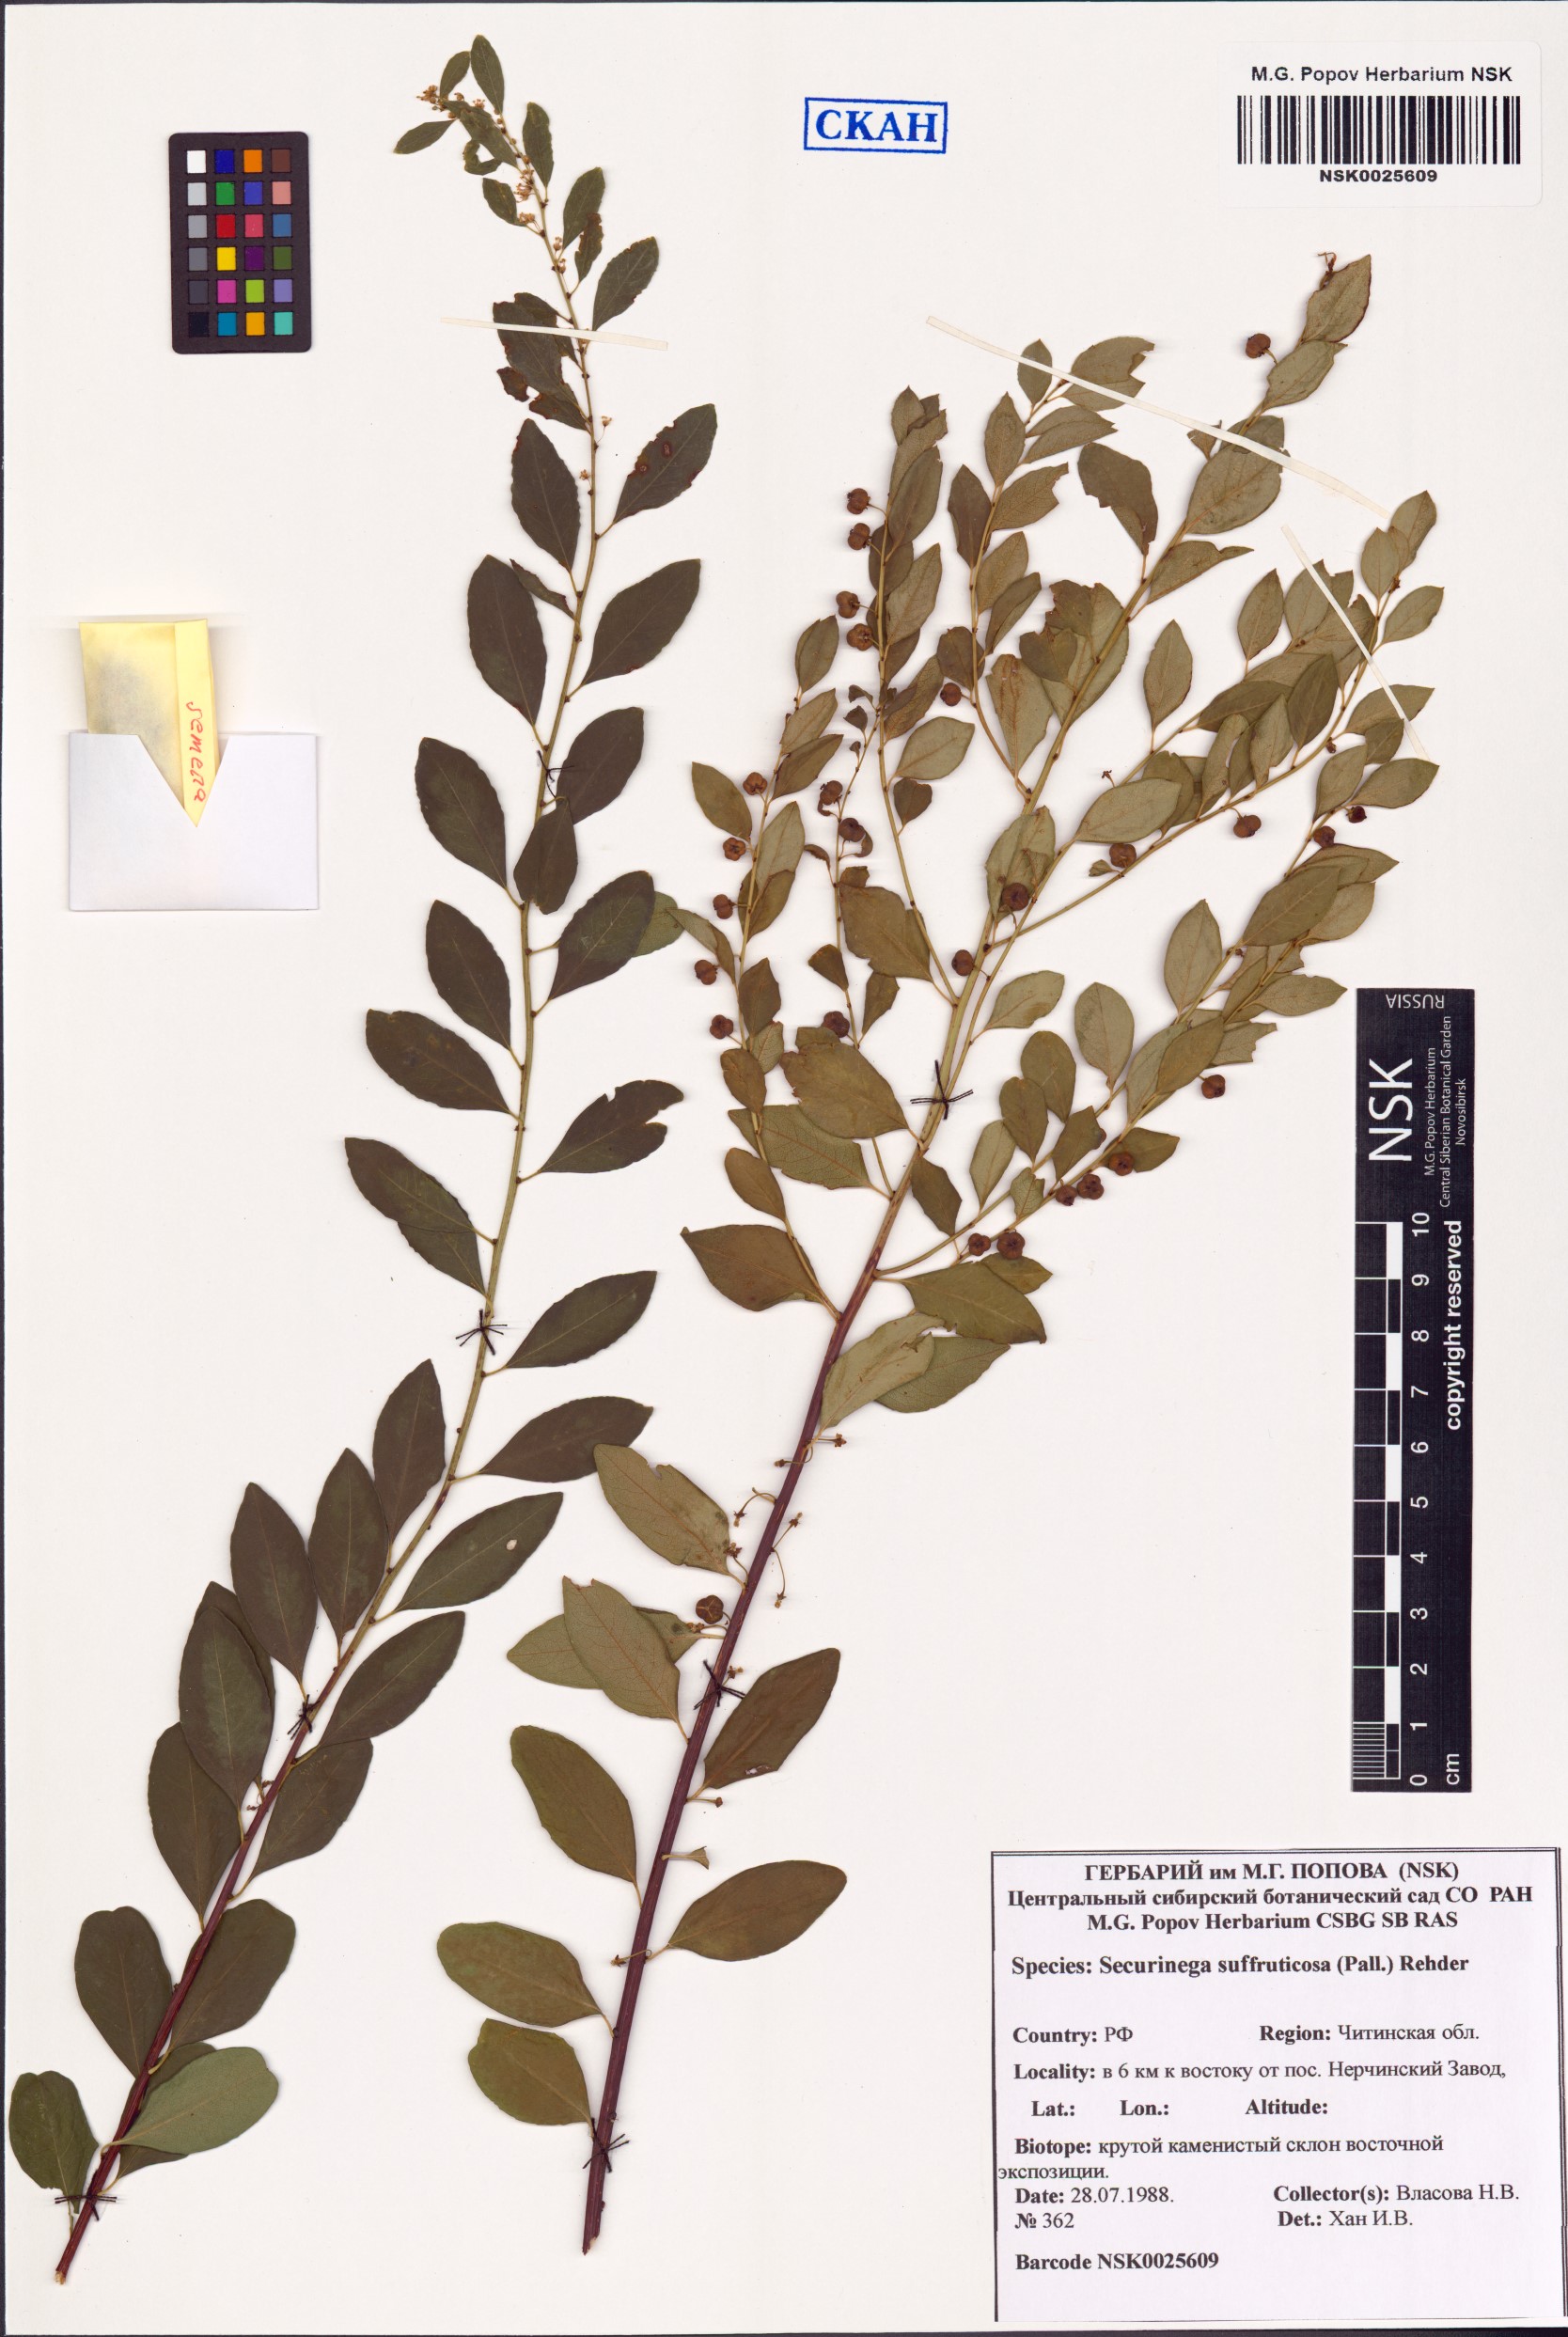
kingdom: Plantae
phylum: Tracheophyta
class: Magnoliopsida
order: Malpighiales
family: Phyllanthaceae
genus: Flueggea
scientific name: Flueggea suffruticosa
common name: Arching bushweed
